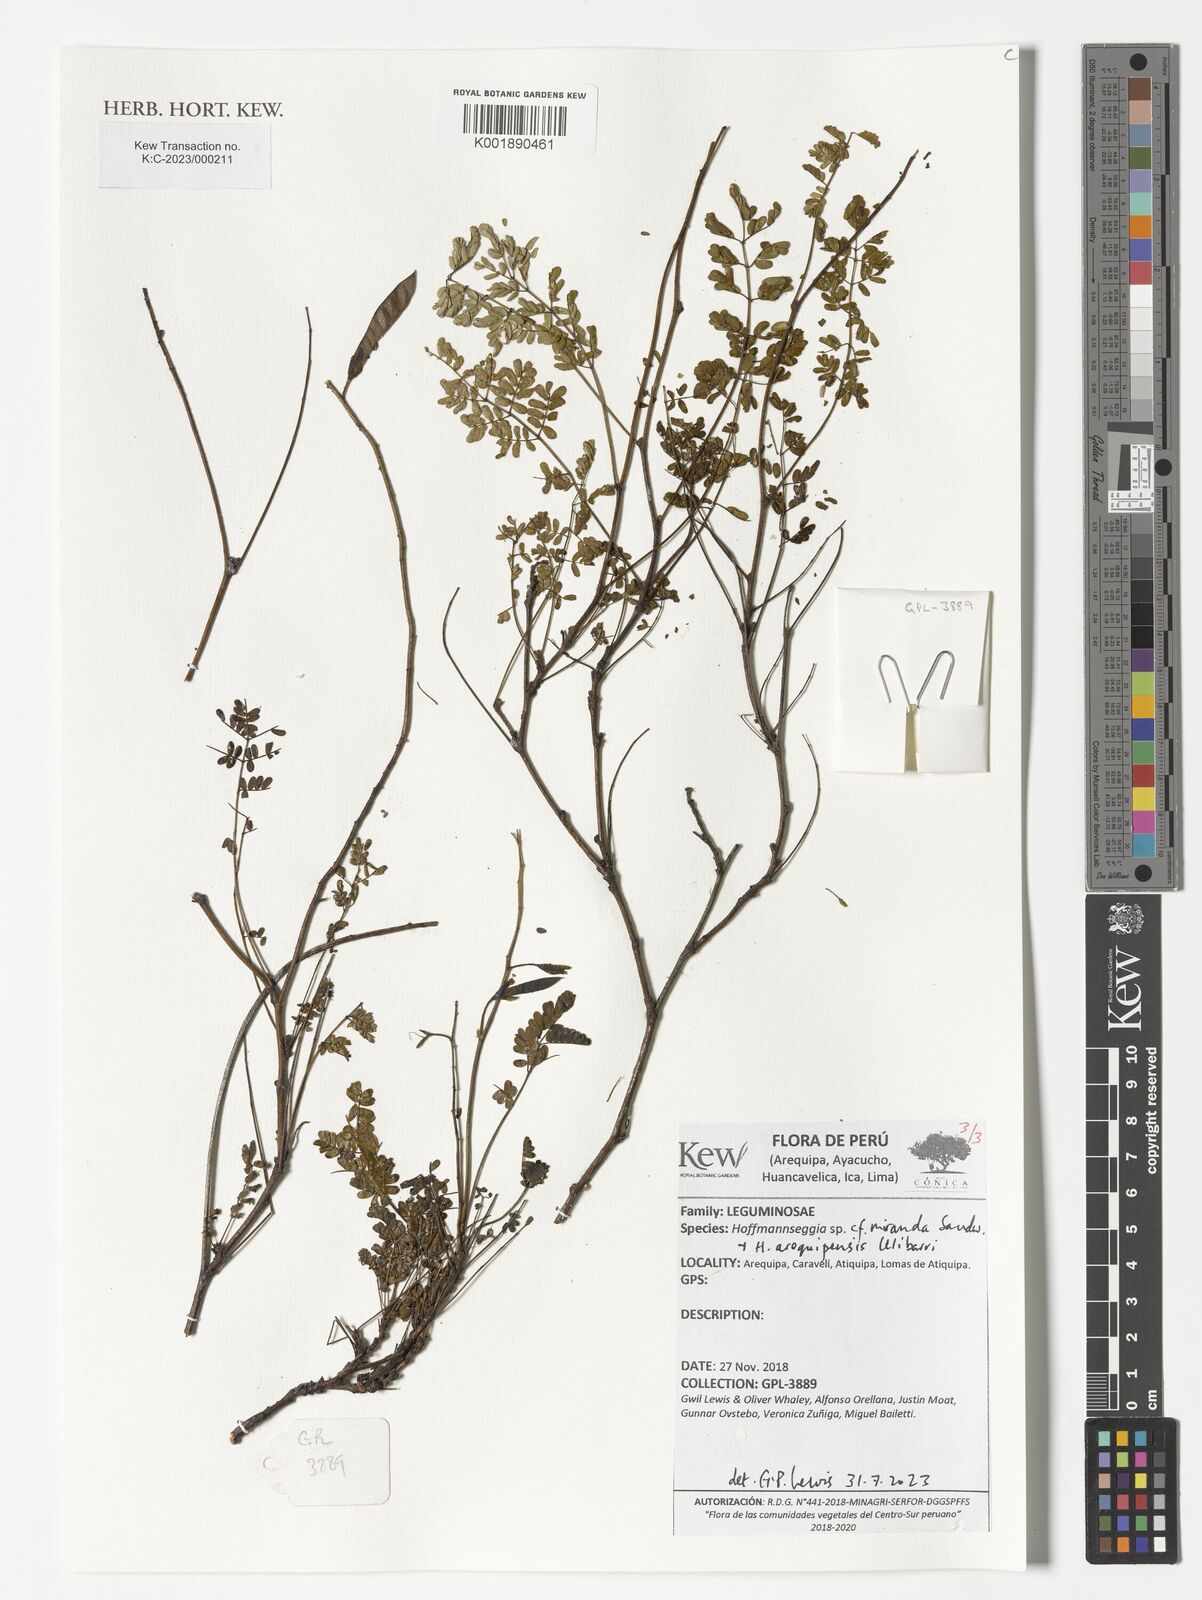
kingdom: Plantae
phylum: Tracheophyta
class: Magnoliopsida
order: Fabales
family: Fabaceae
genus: Hoffmannseggia
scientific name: Hoffmannseggia
